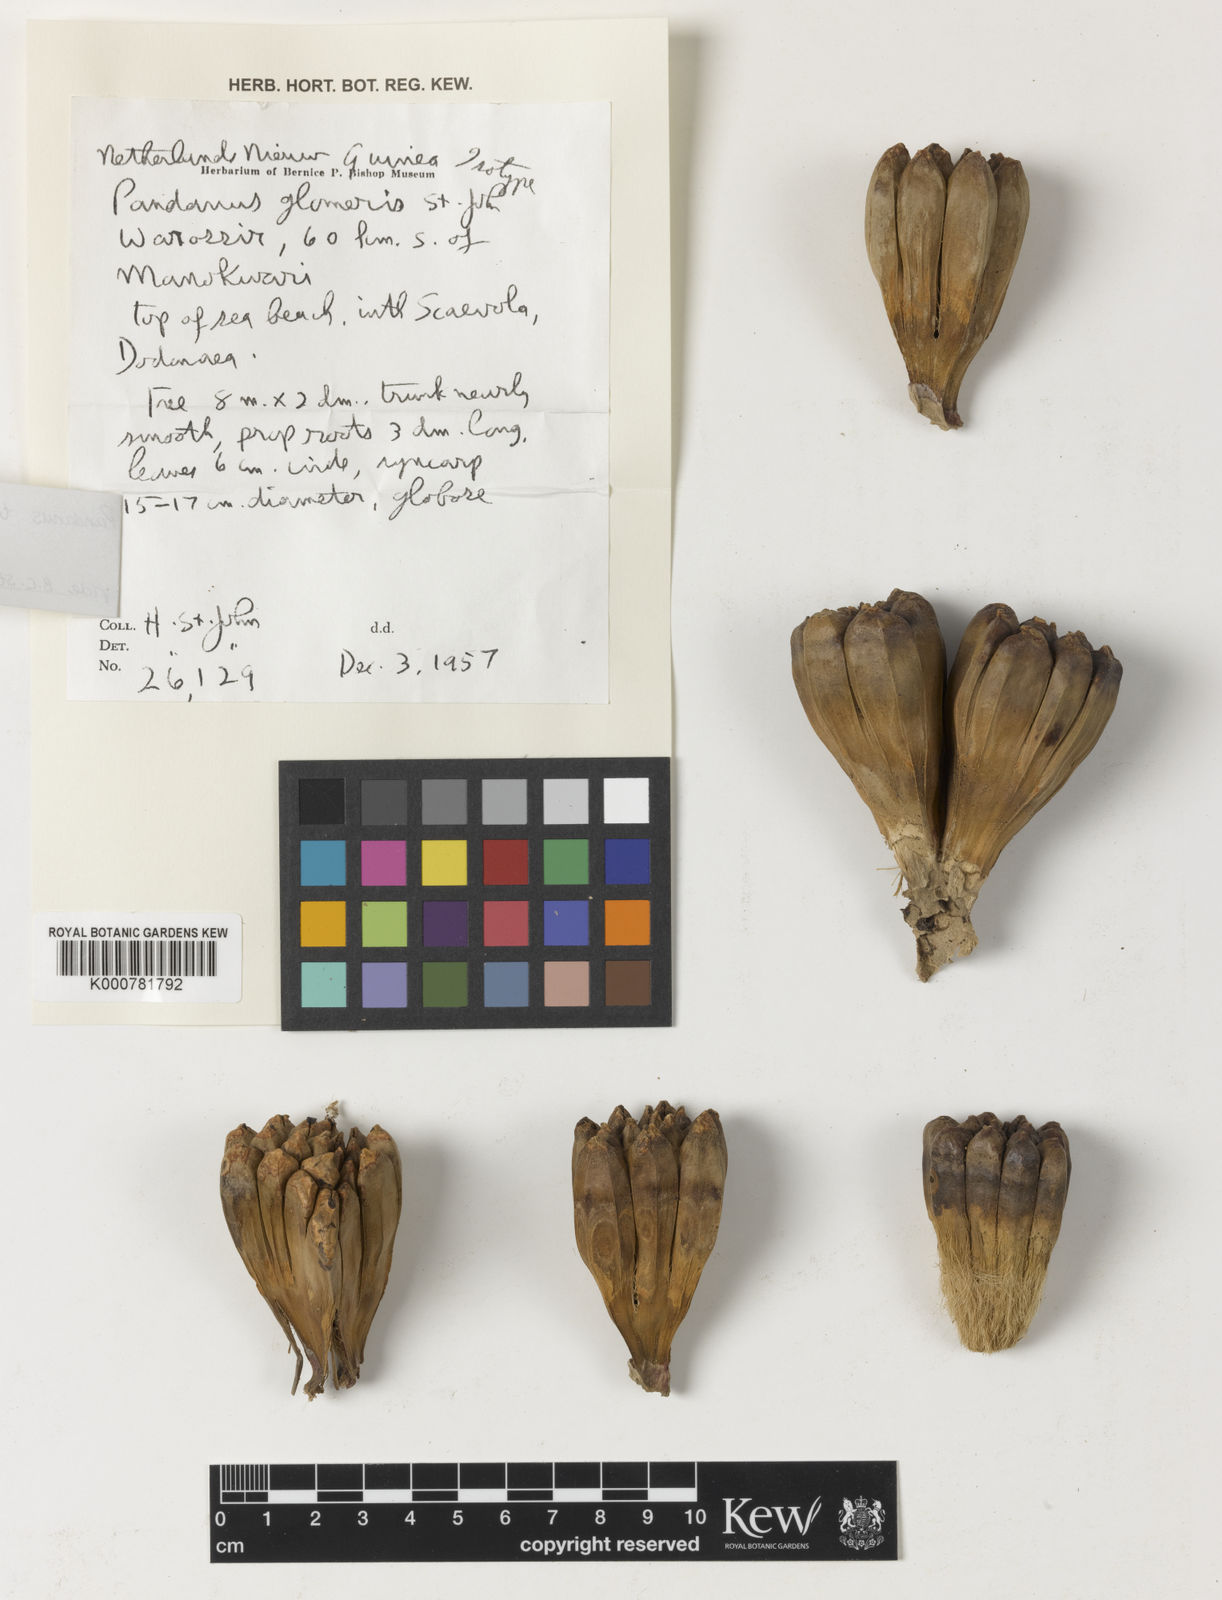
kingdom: Plantae
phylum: Tracheophyta
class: Liliopsida
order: Pandanales
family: Pandanaceae
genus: Pandanus
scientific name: Pandanus
